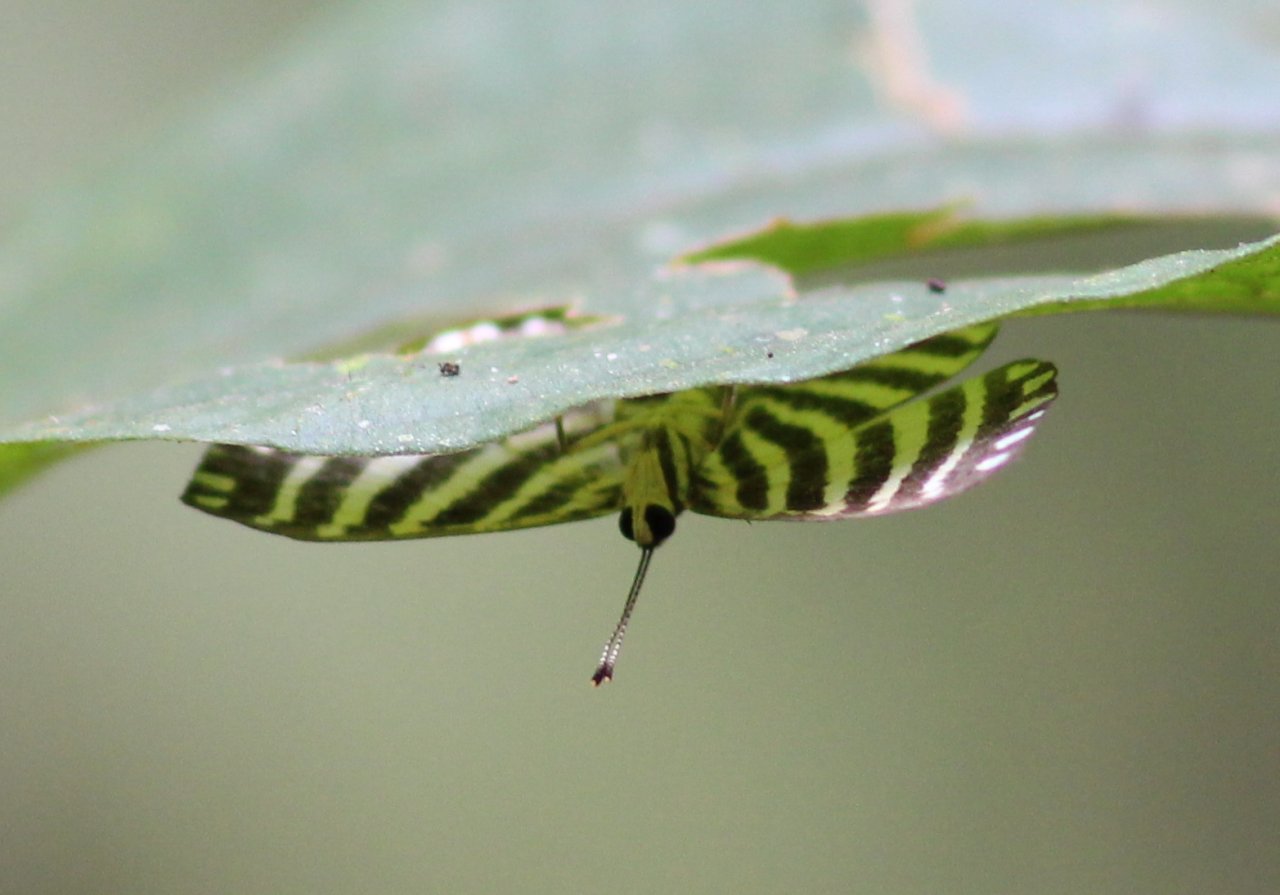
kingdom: Animalia
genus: Hyphilaria
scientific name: Hyphilaria parthenis
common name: Fire-banded Metalmark
